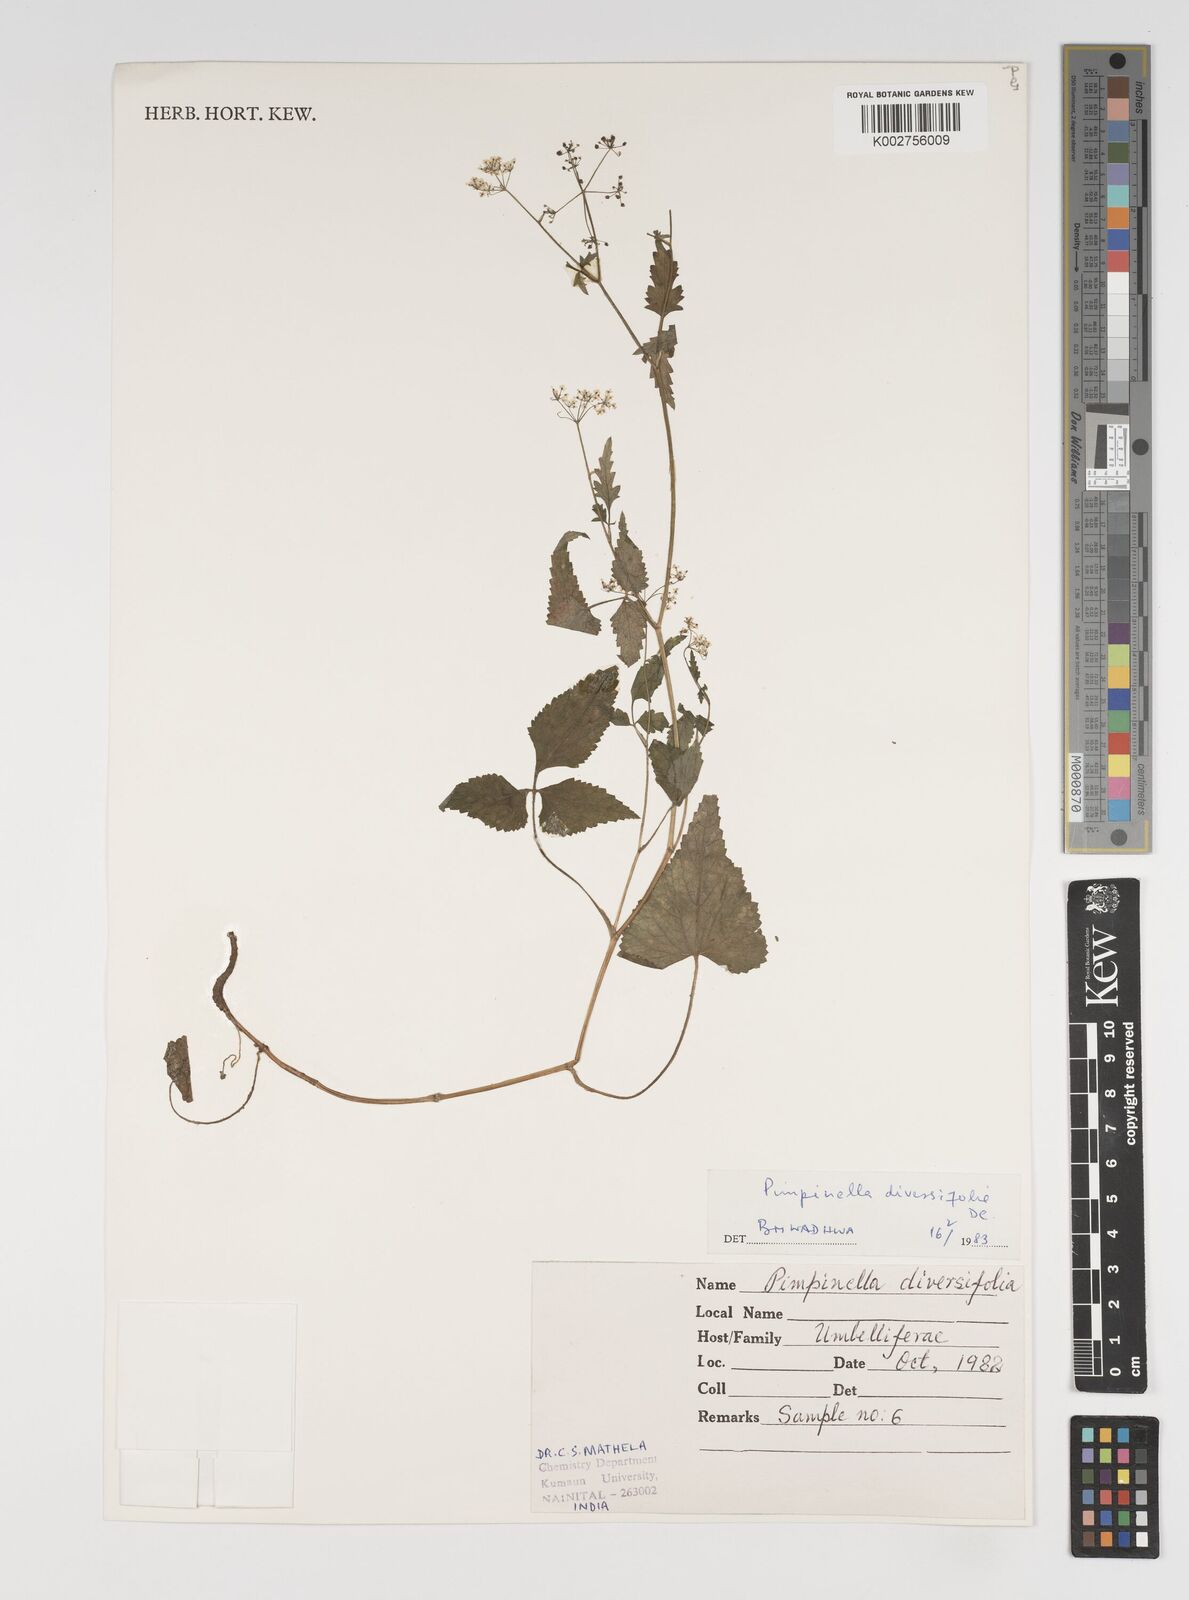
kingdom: Plantae
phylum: Tracheophyta
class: Magnoliopsida
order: Apiales
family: Apiaceae
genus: Pimpinella
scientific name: Pimpinella diversifolia
